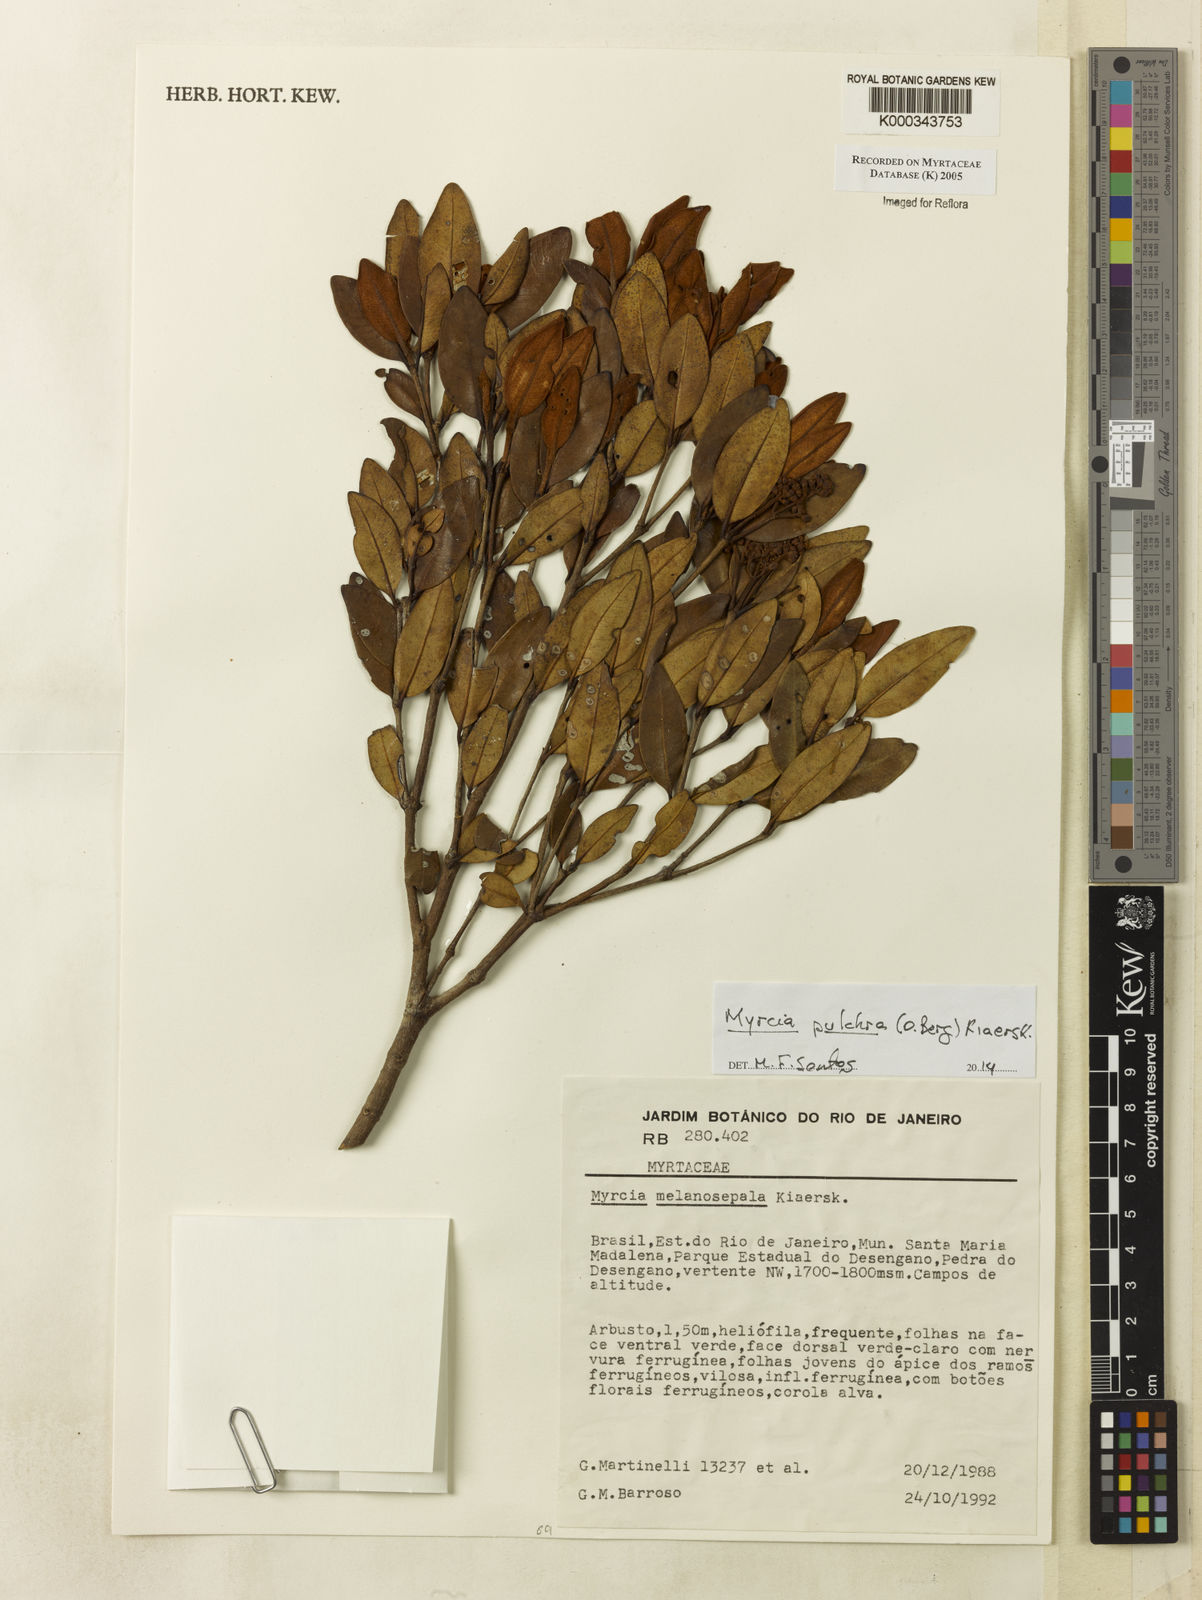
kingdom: Plantae
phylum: Tracheophyta
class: Magnoliopsida
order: Myrtales
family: Myrtaceae
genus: Myrcia
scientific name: Myrcia venulosa
